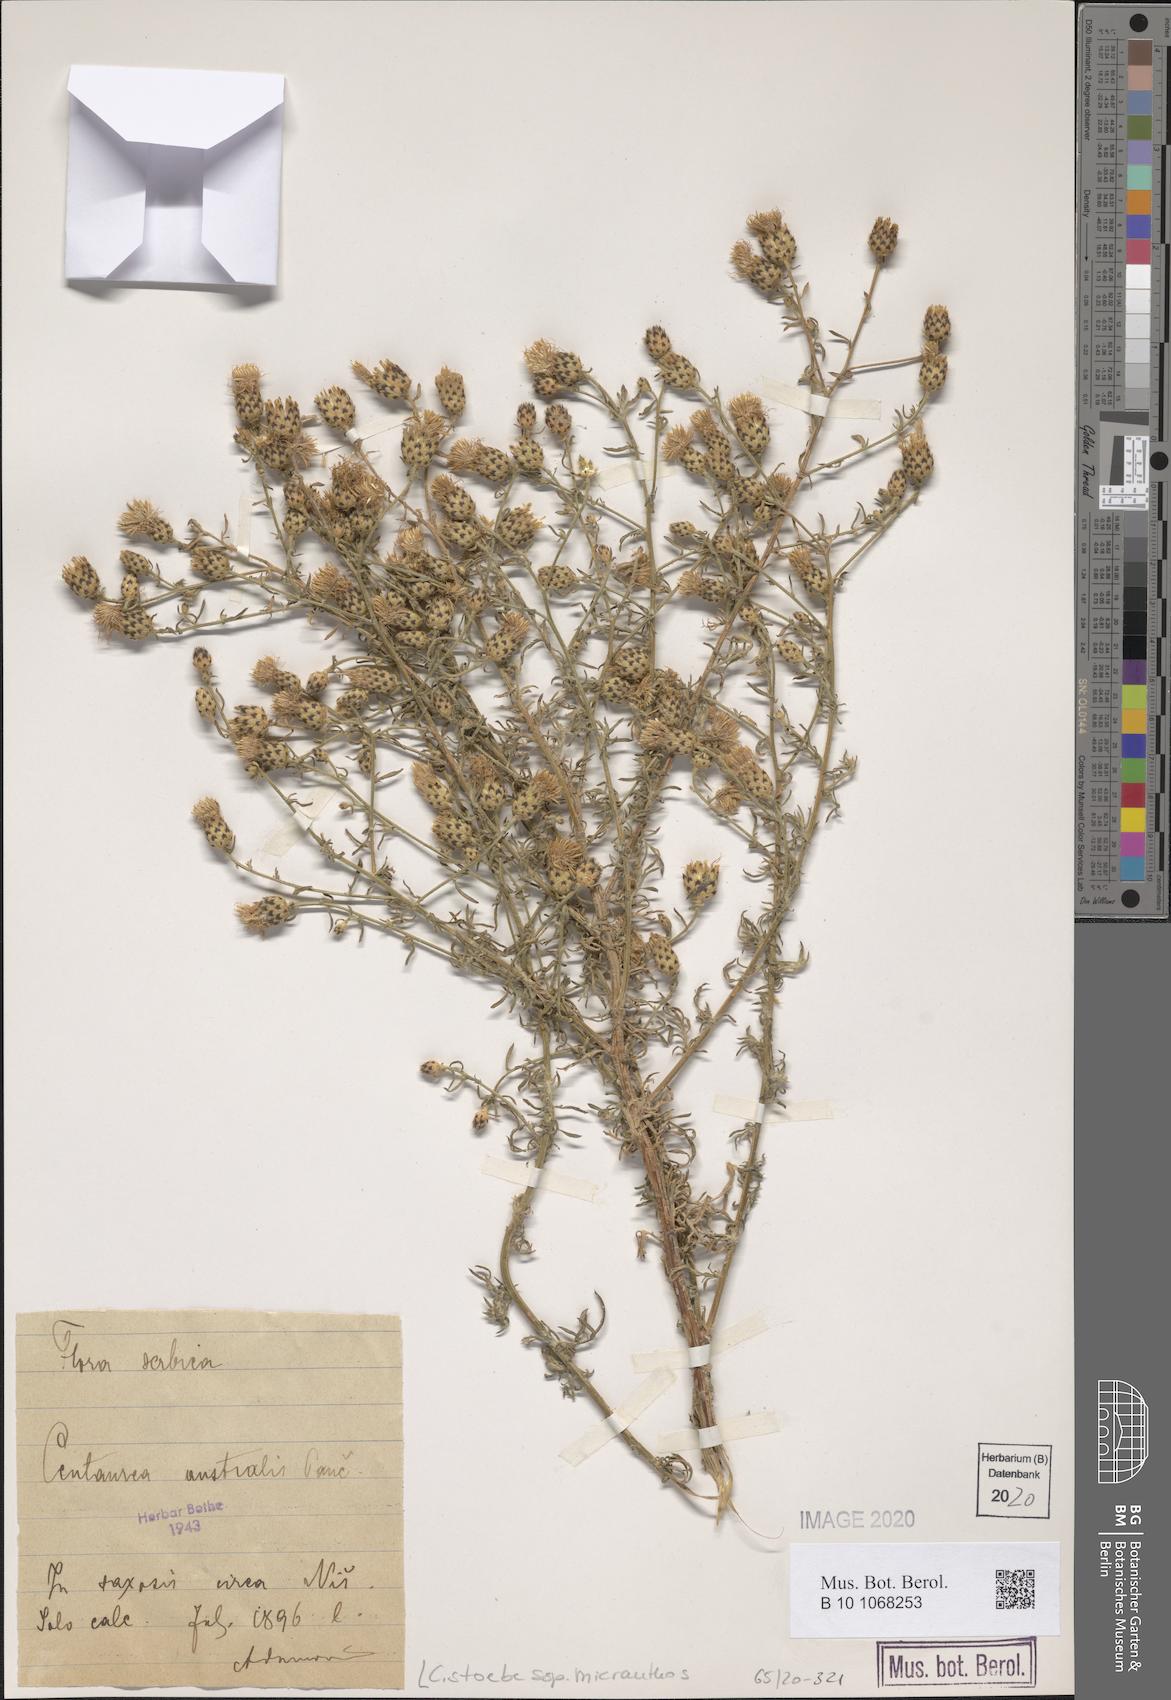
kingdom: Plantae
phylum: Tracheophyta
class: Magnoliopsida
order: Asterales
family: Asteraceae
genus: Centaurea
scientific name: Centaurea australis
